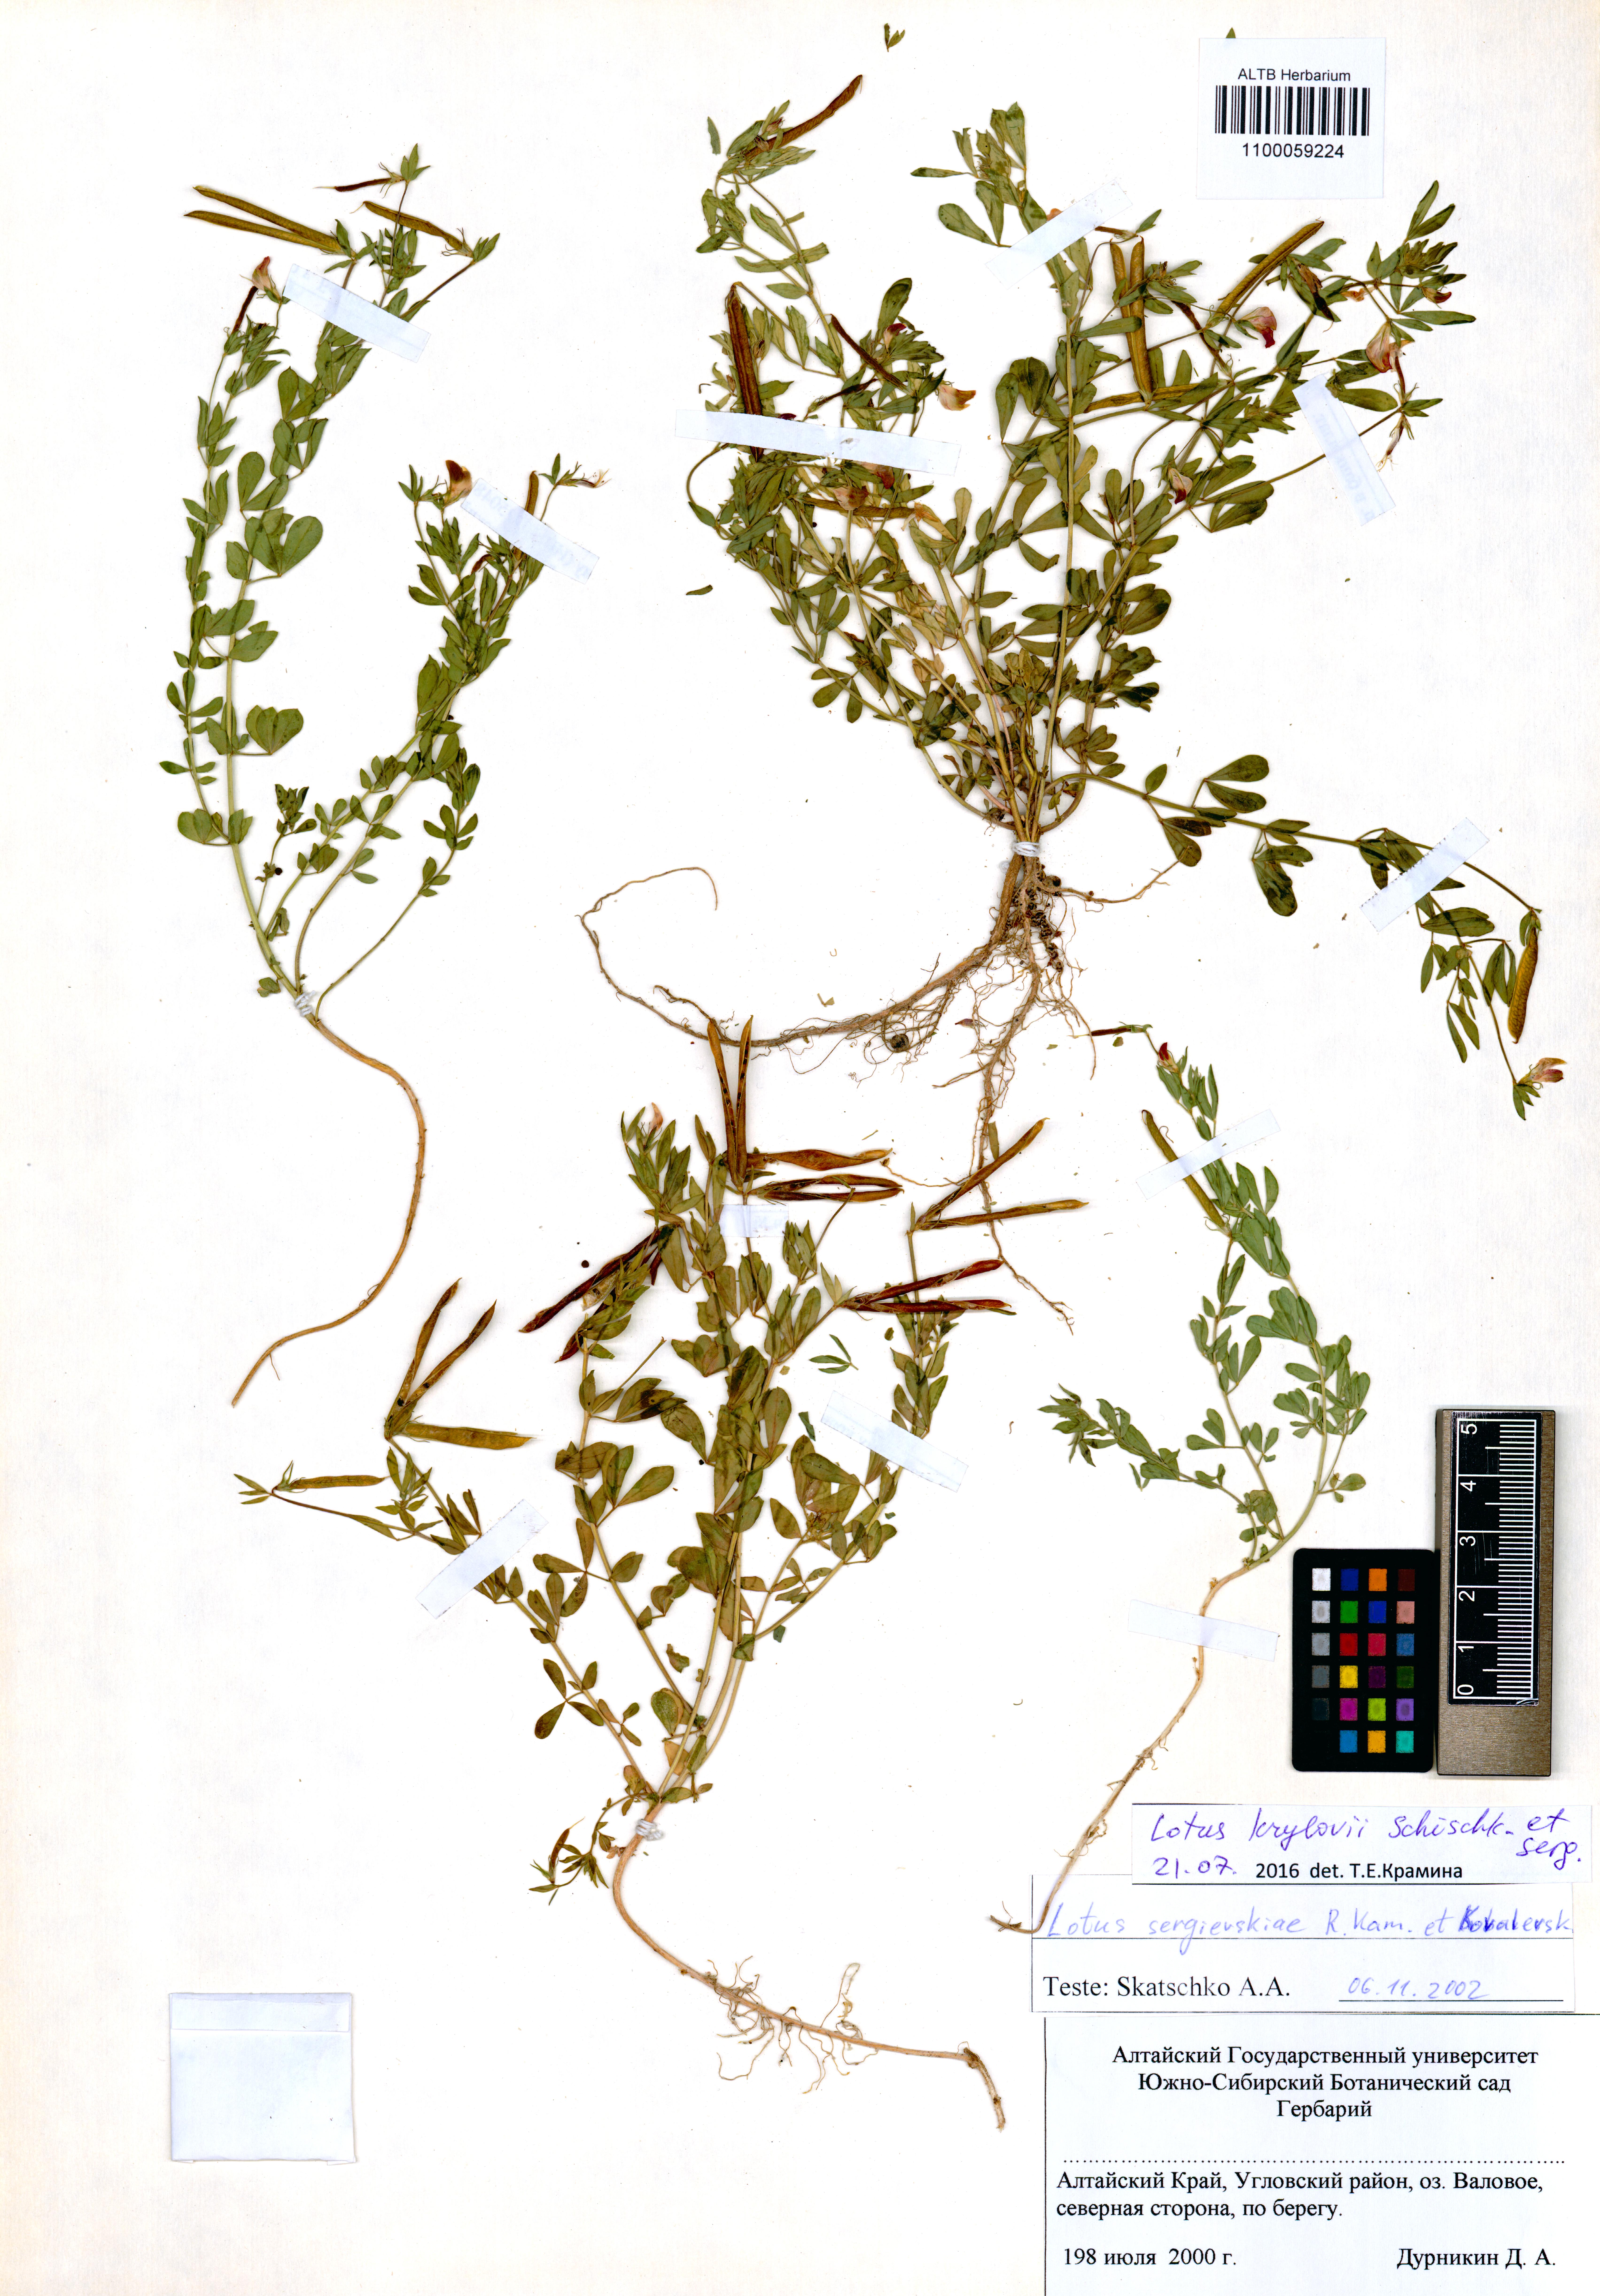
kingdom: Plantae
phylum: Tracheophyta
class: Magnoliopsida
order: Fabales
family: Fabaceae
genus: Lotus
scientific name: Lotus krylovii
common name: Krylov's bird's-foot trefoil
